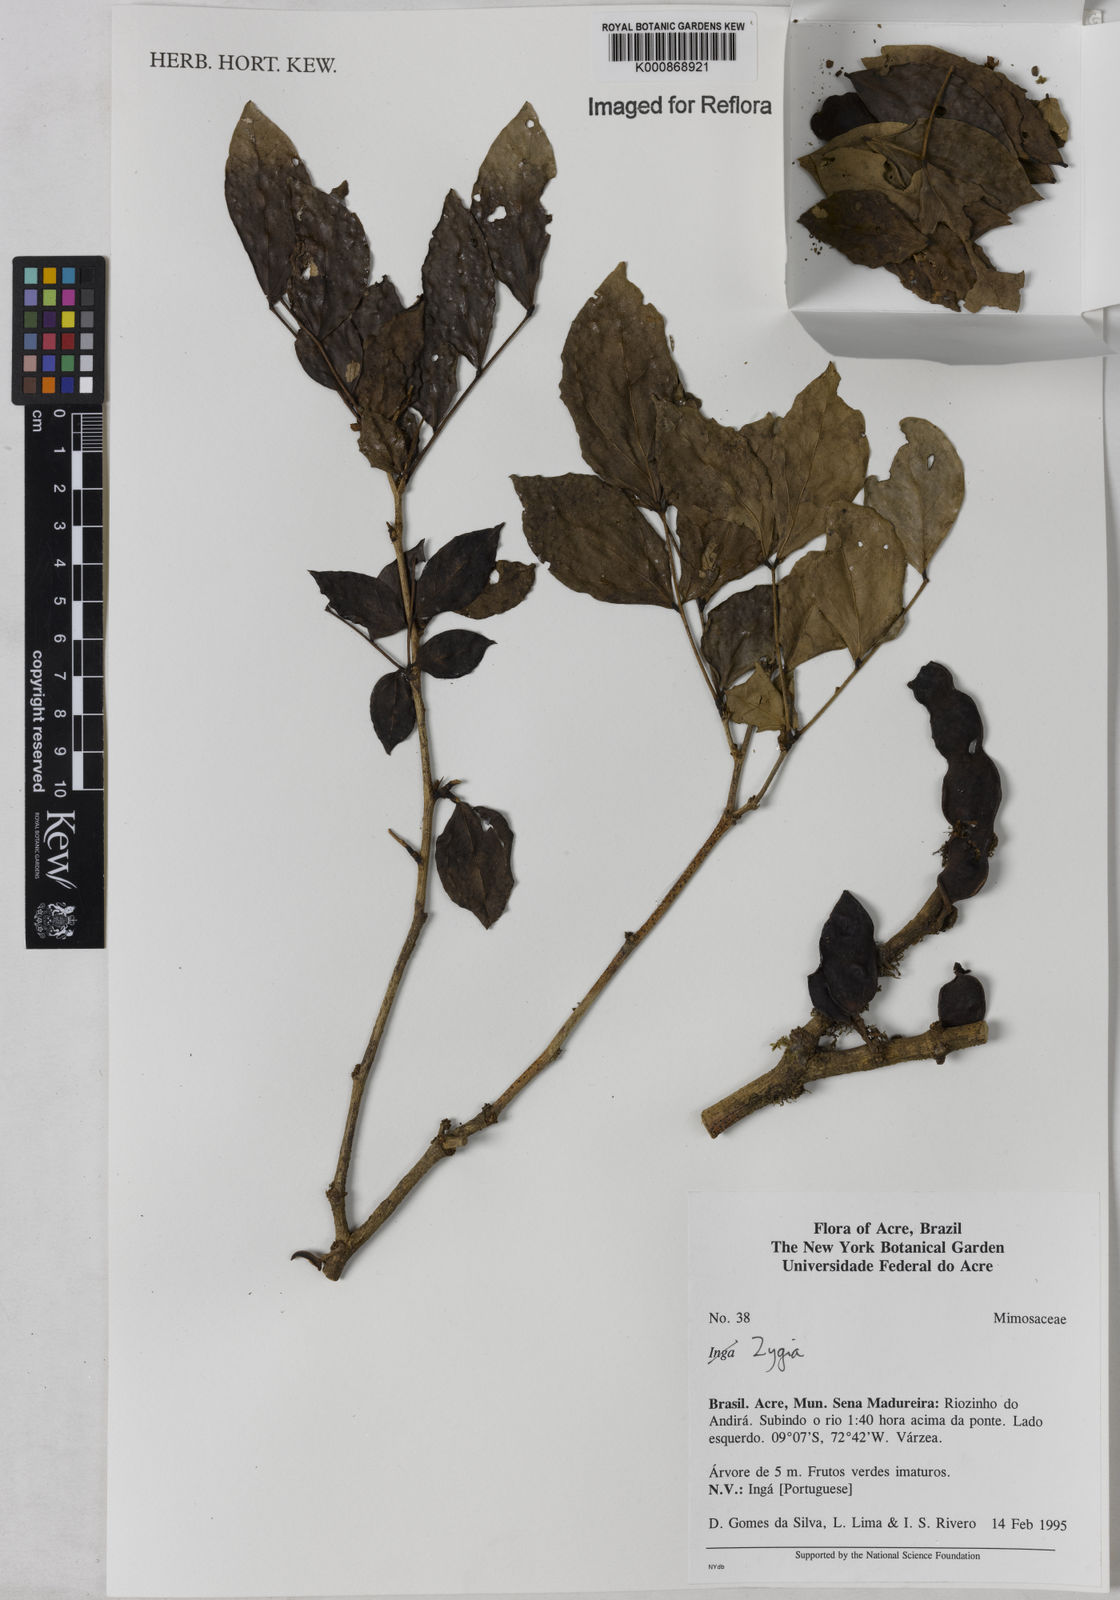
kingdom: Plantae
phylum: Tracheophyta
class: Magnoliopsida
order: Fabales
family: Fabaceae
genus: Zygia
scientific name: Zygia
